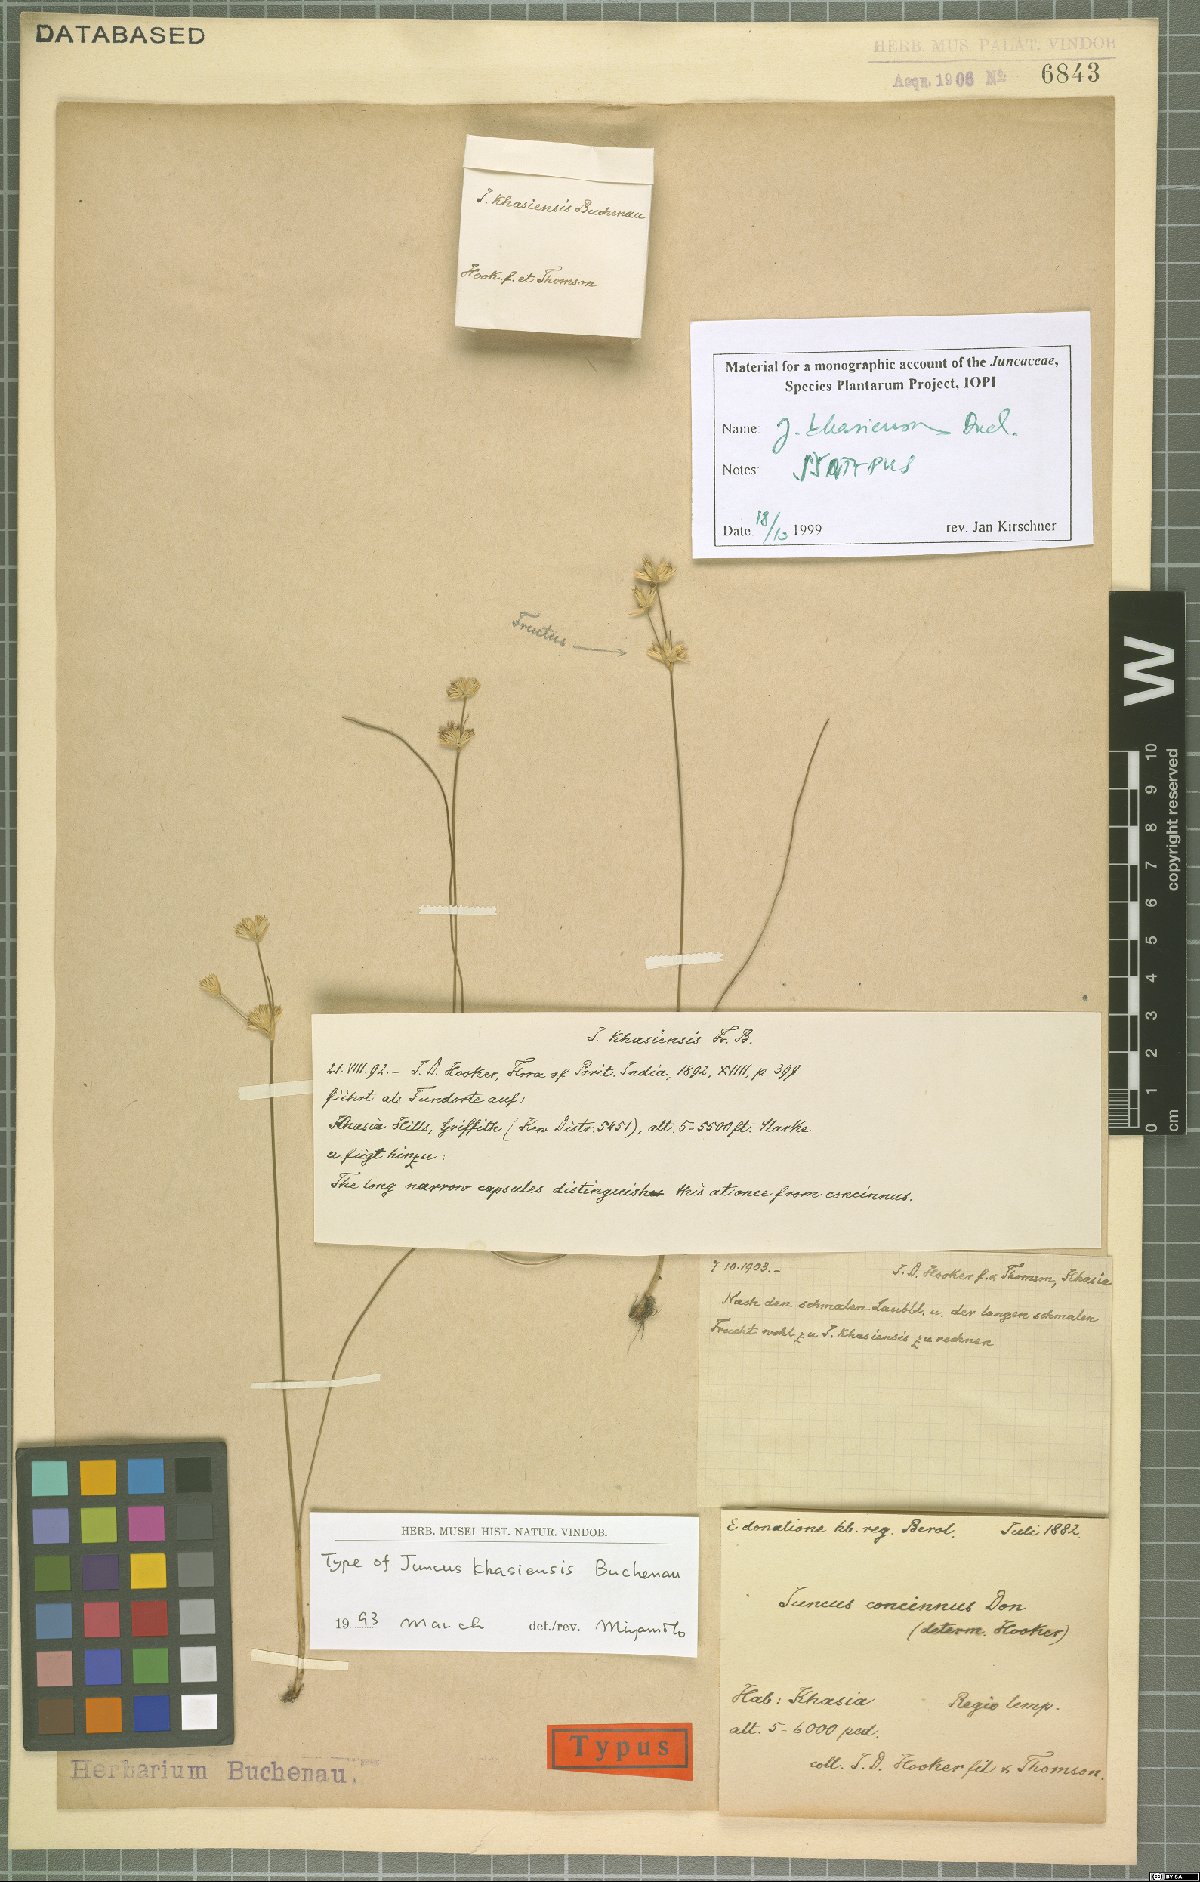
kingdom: Plantae
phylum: Tracheophyta
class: Liliopsida
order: Poales
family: Juncaceae
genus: Juncus
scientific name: Juncus khasiensis
